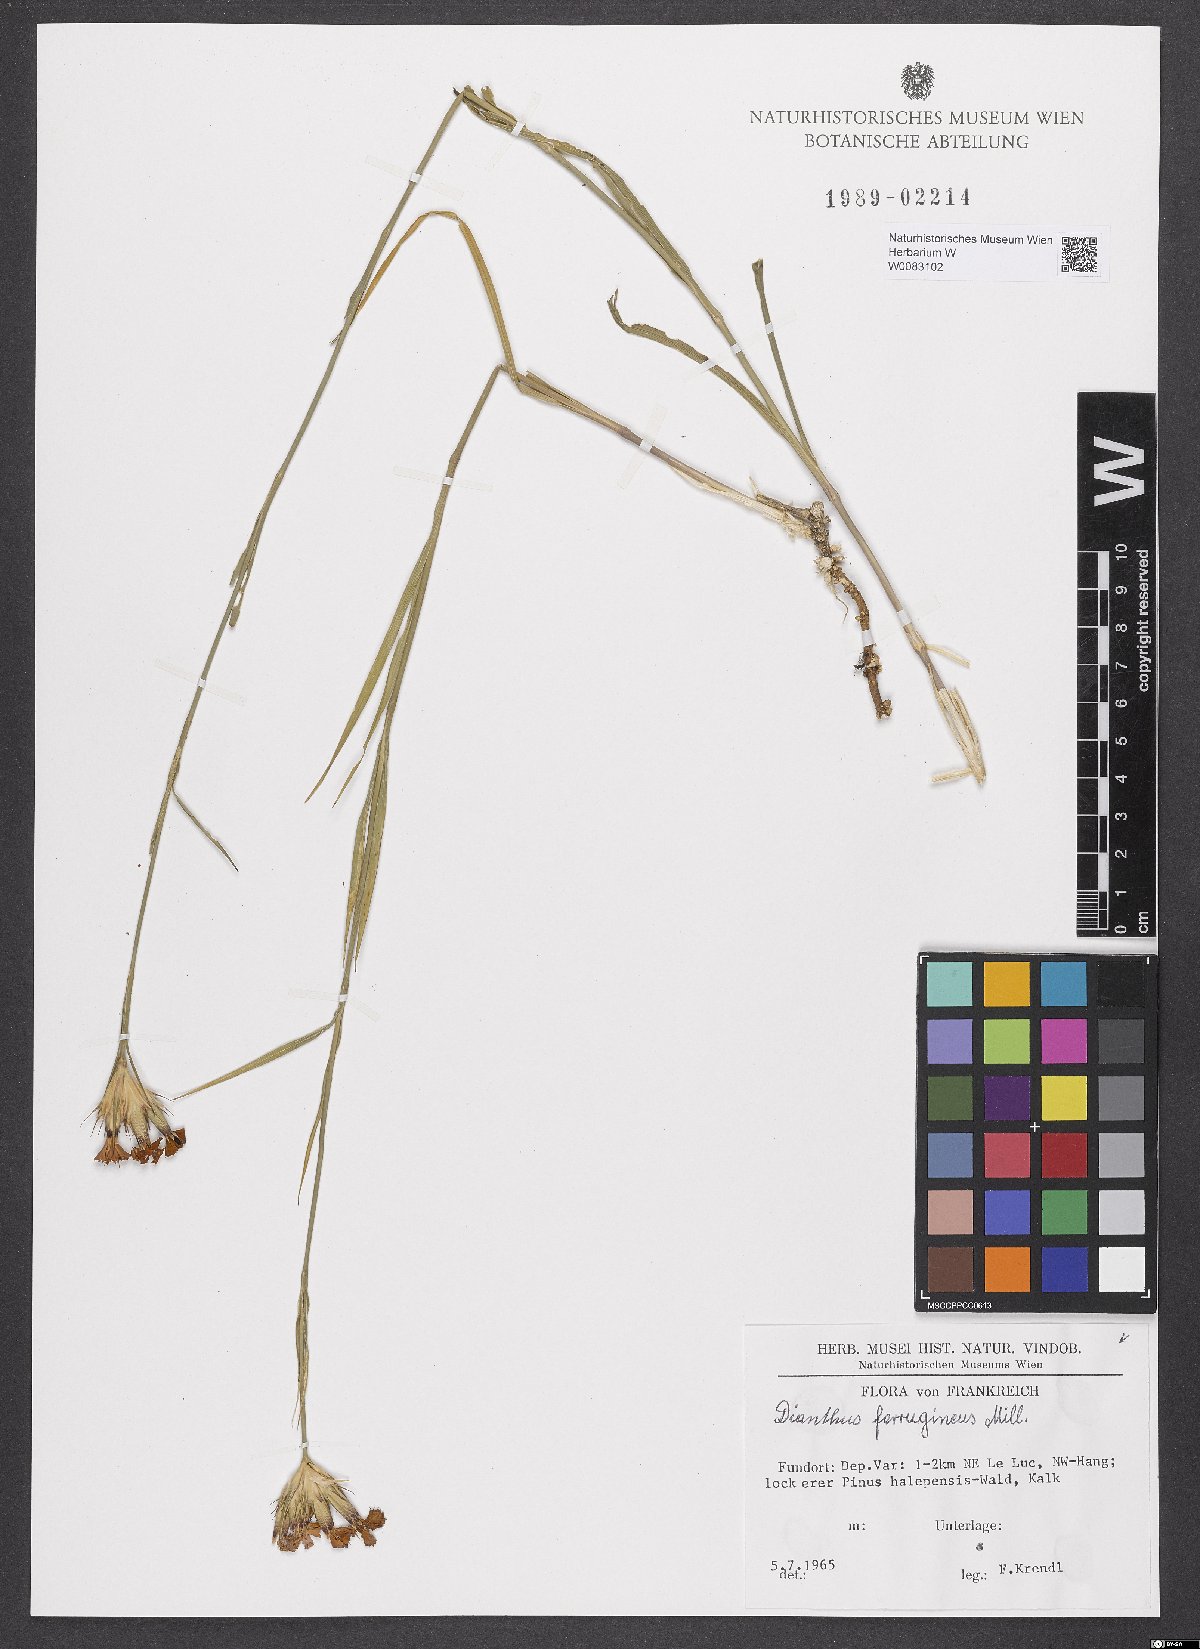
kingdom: Plantae
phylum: Tracheophyta
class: Magnoliopsida
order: Caryophyllales
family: Caryophyllaceae
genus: Dianthus
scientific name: Dianthus crassipes
